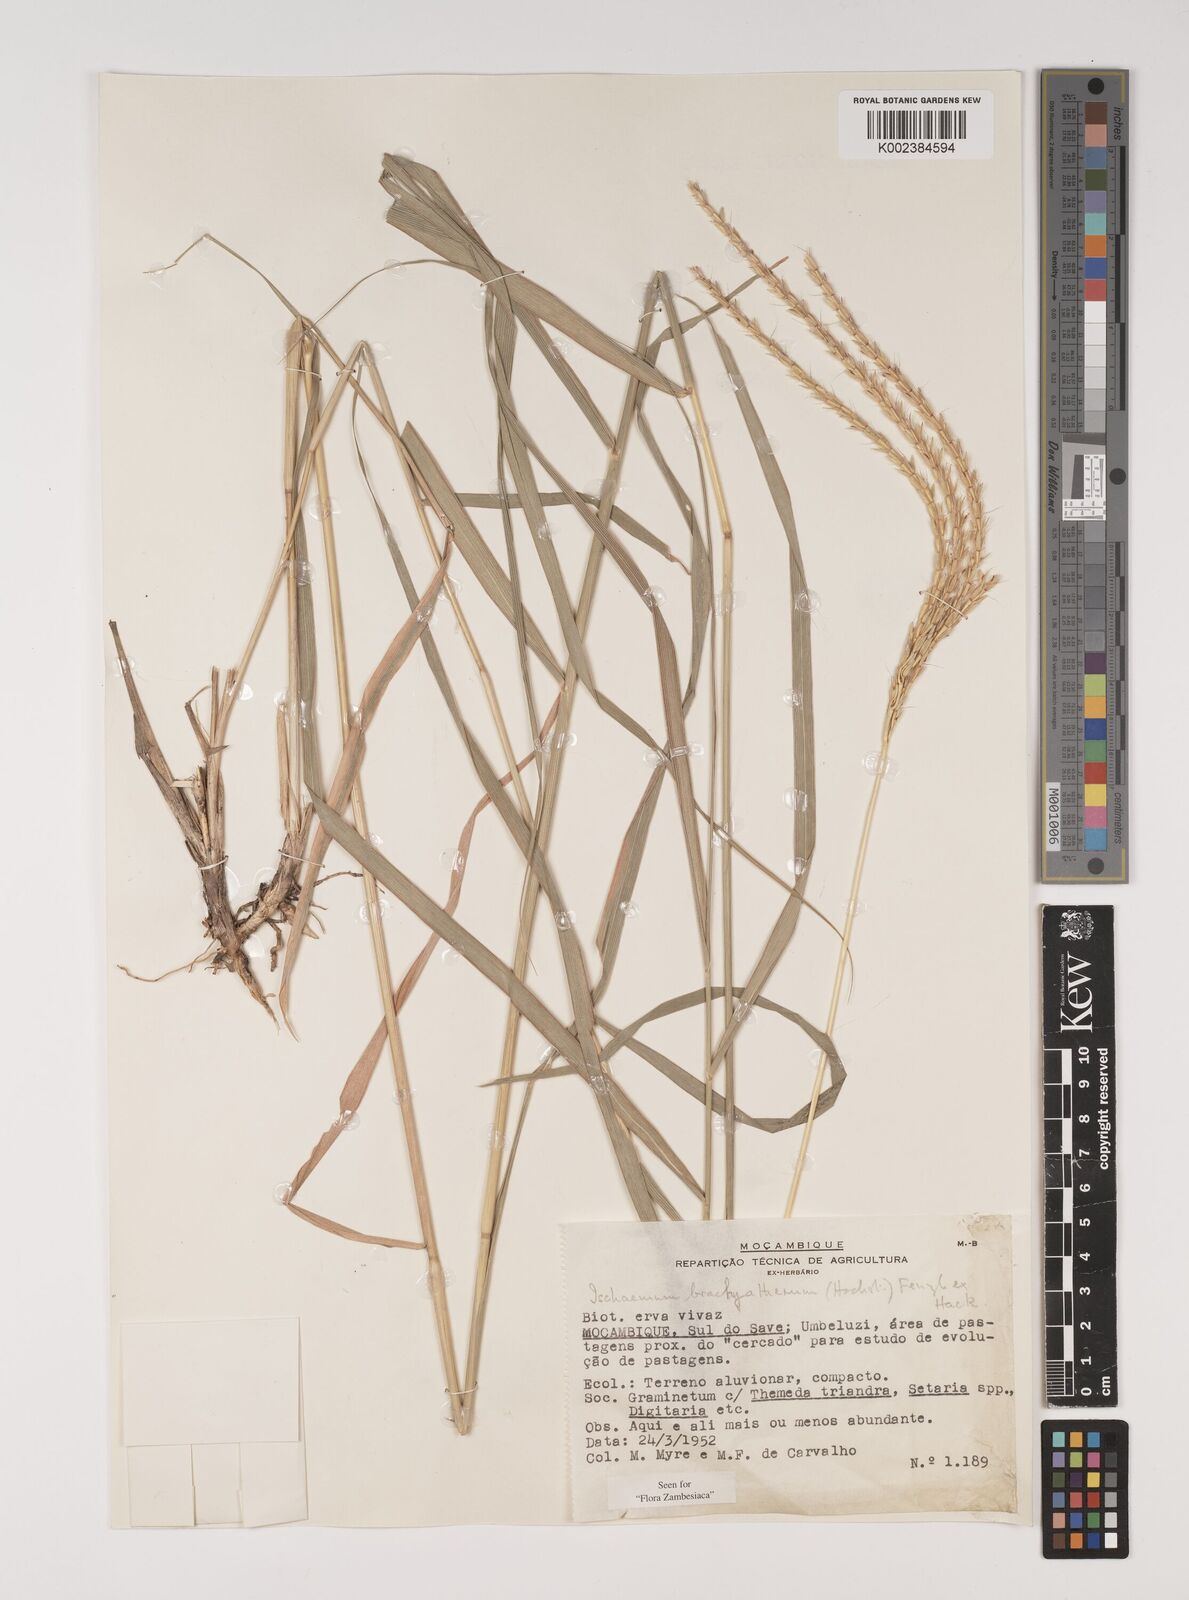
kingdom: Plantae
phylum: Tracheophyta
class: Liliopsida
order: Poales
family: Poaceae
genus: Ischaemum
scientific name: Ischaemum afrum
